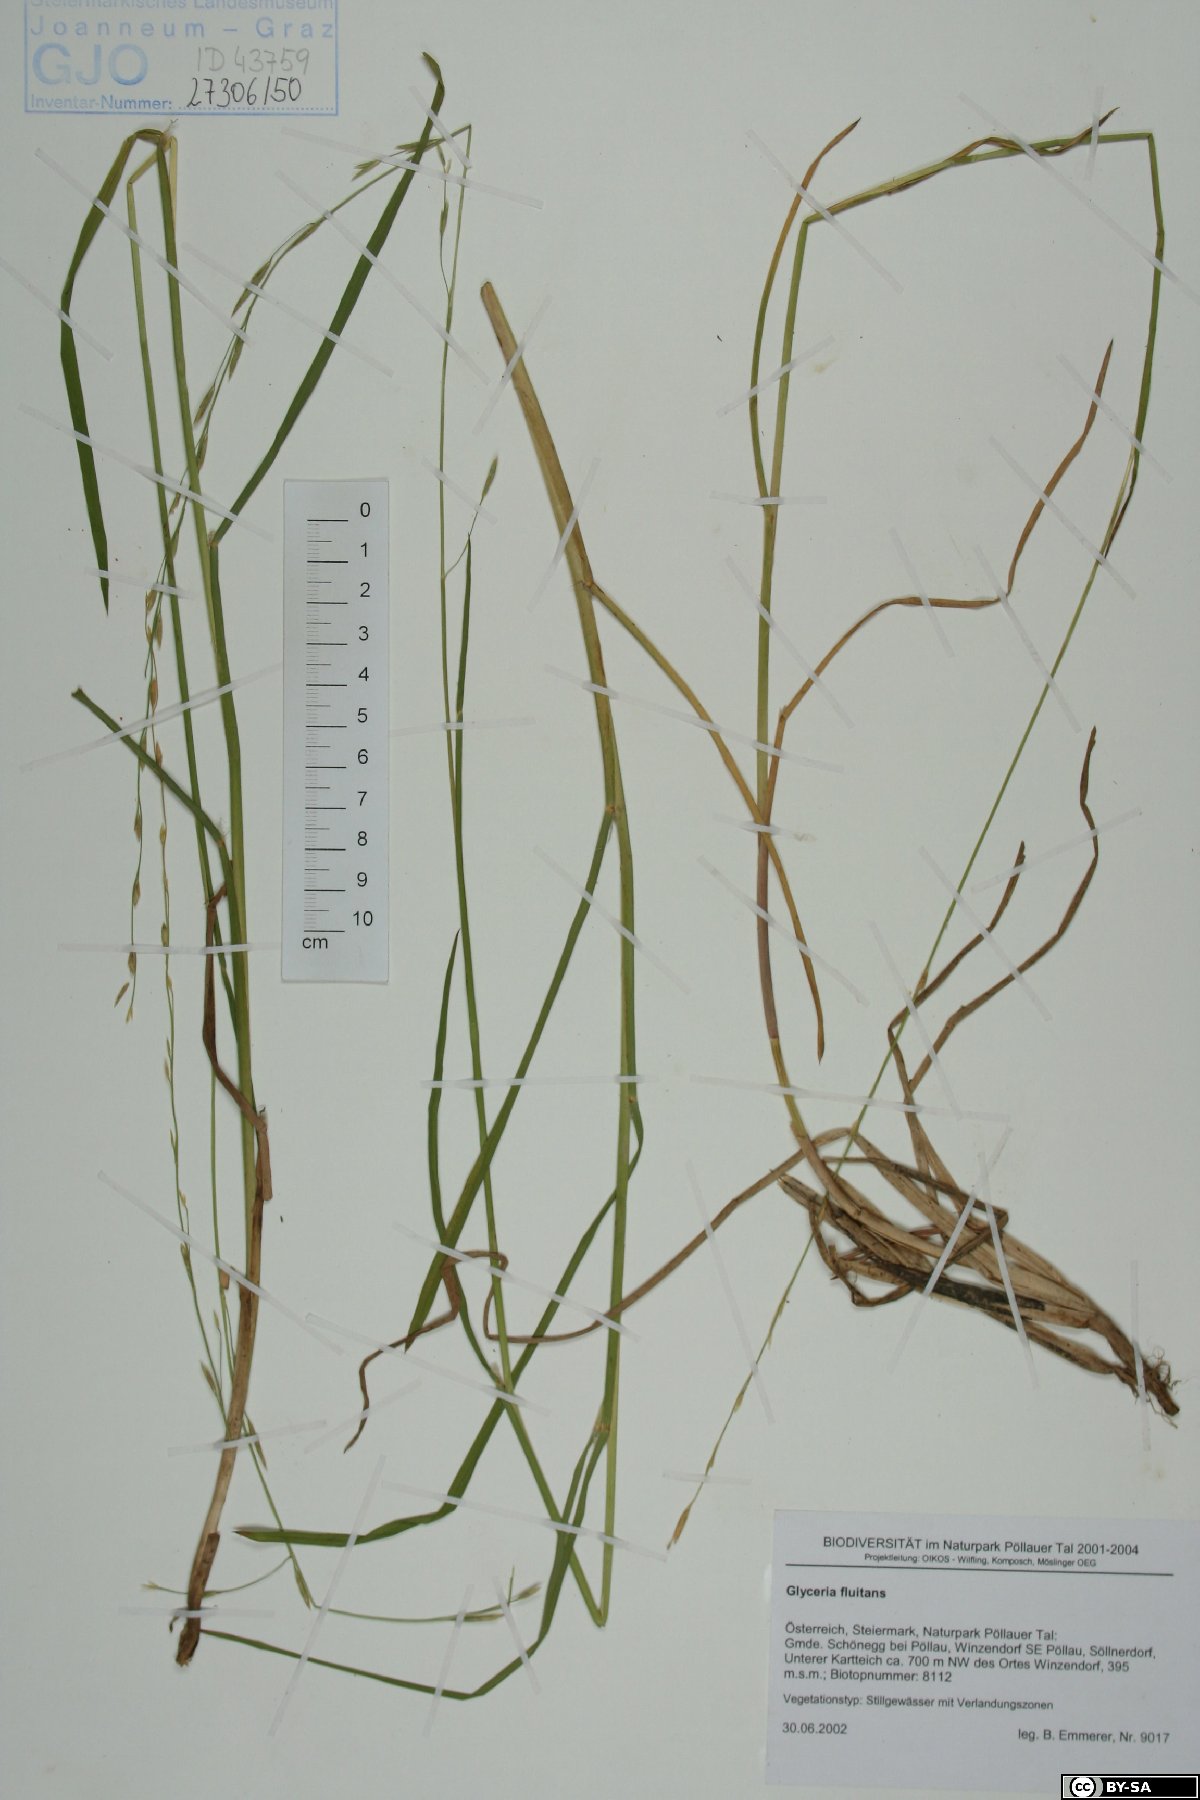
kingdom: Plantae
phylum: Tracheophyta
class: Liliopsida
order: Poales
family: Poaceae
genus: Glyceria
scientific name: Glyceria fluitans
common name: Floating sweet-grass
